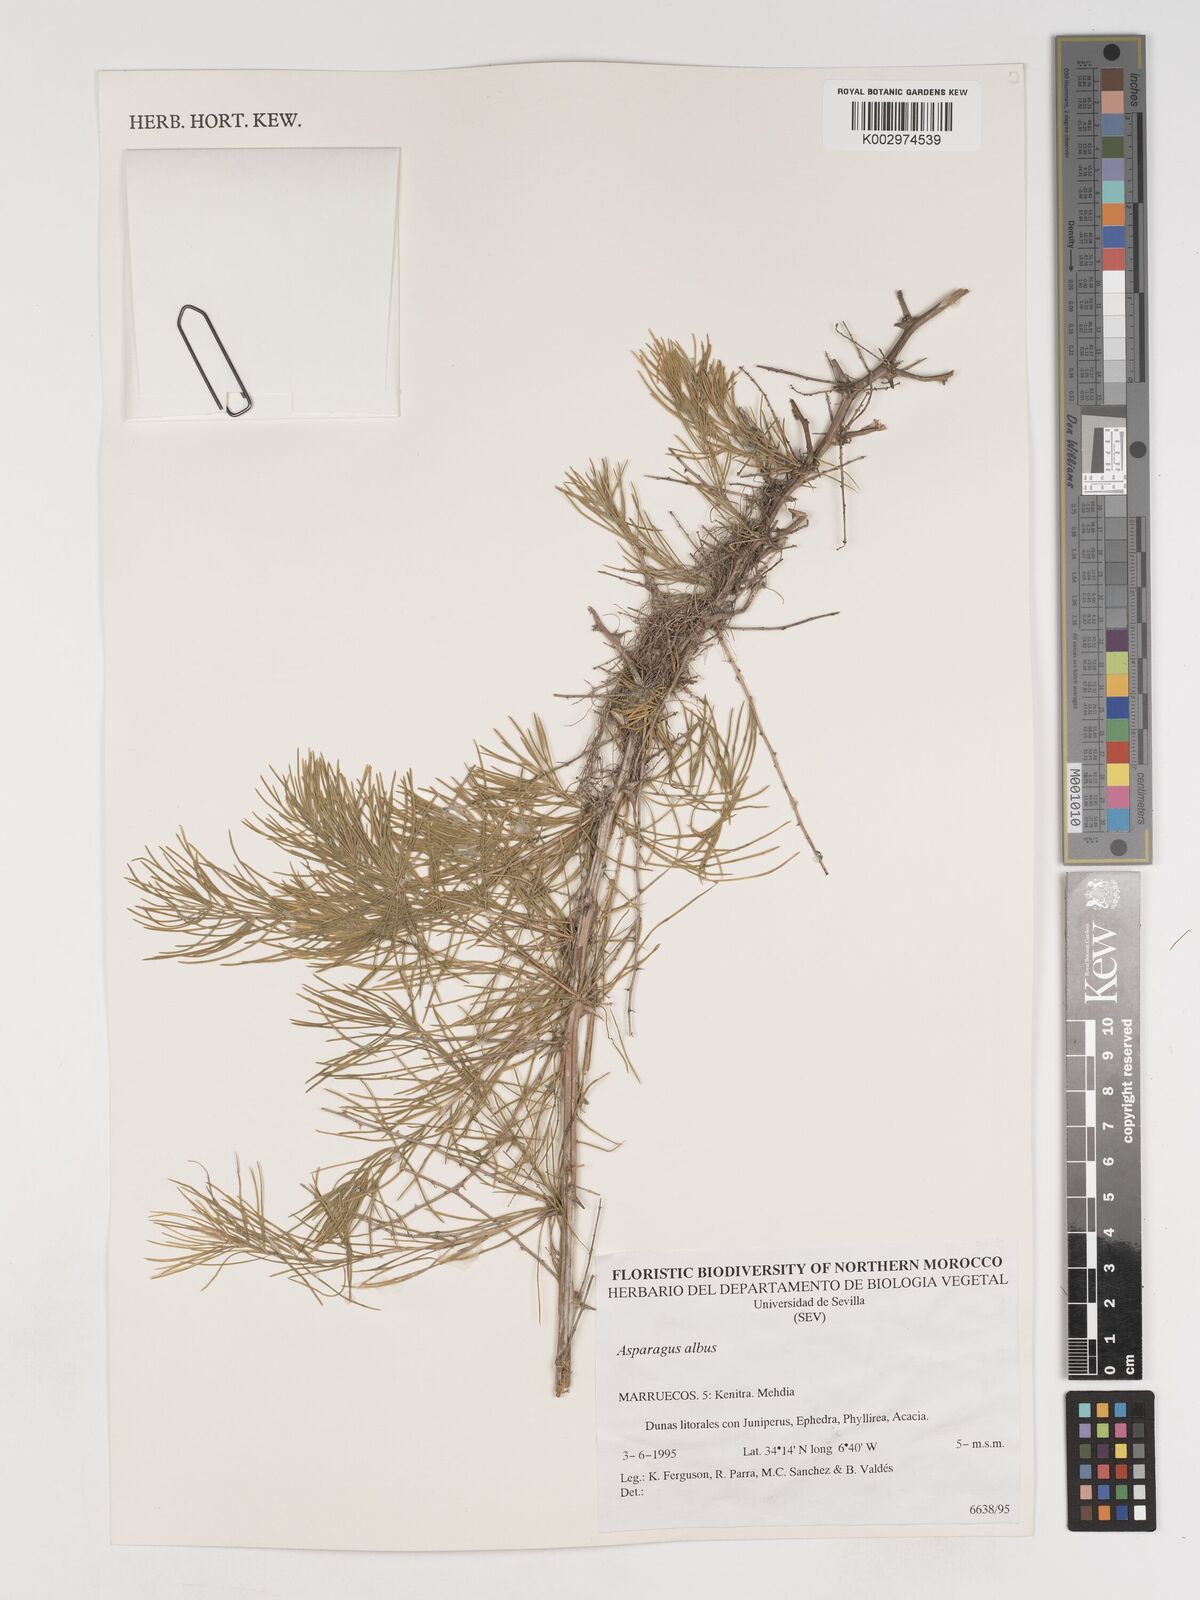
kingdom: Plantae
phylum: Tracheophyta
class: Liliopsida
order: Asparagales
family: Asparagaceae
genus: Asparagus
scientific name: Asparagus albus
